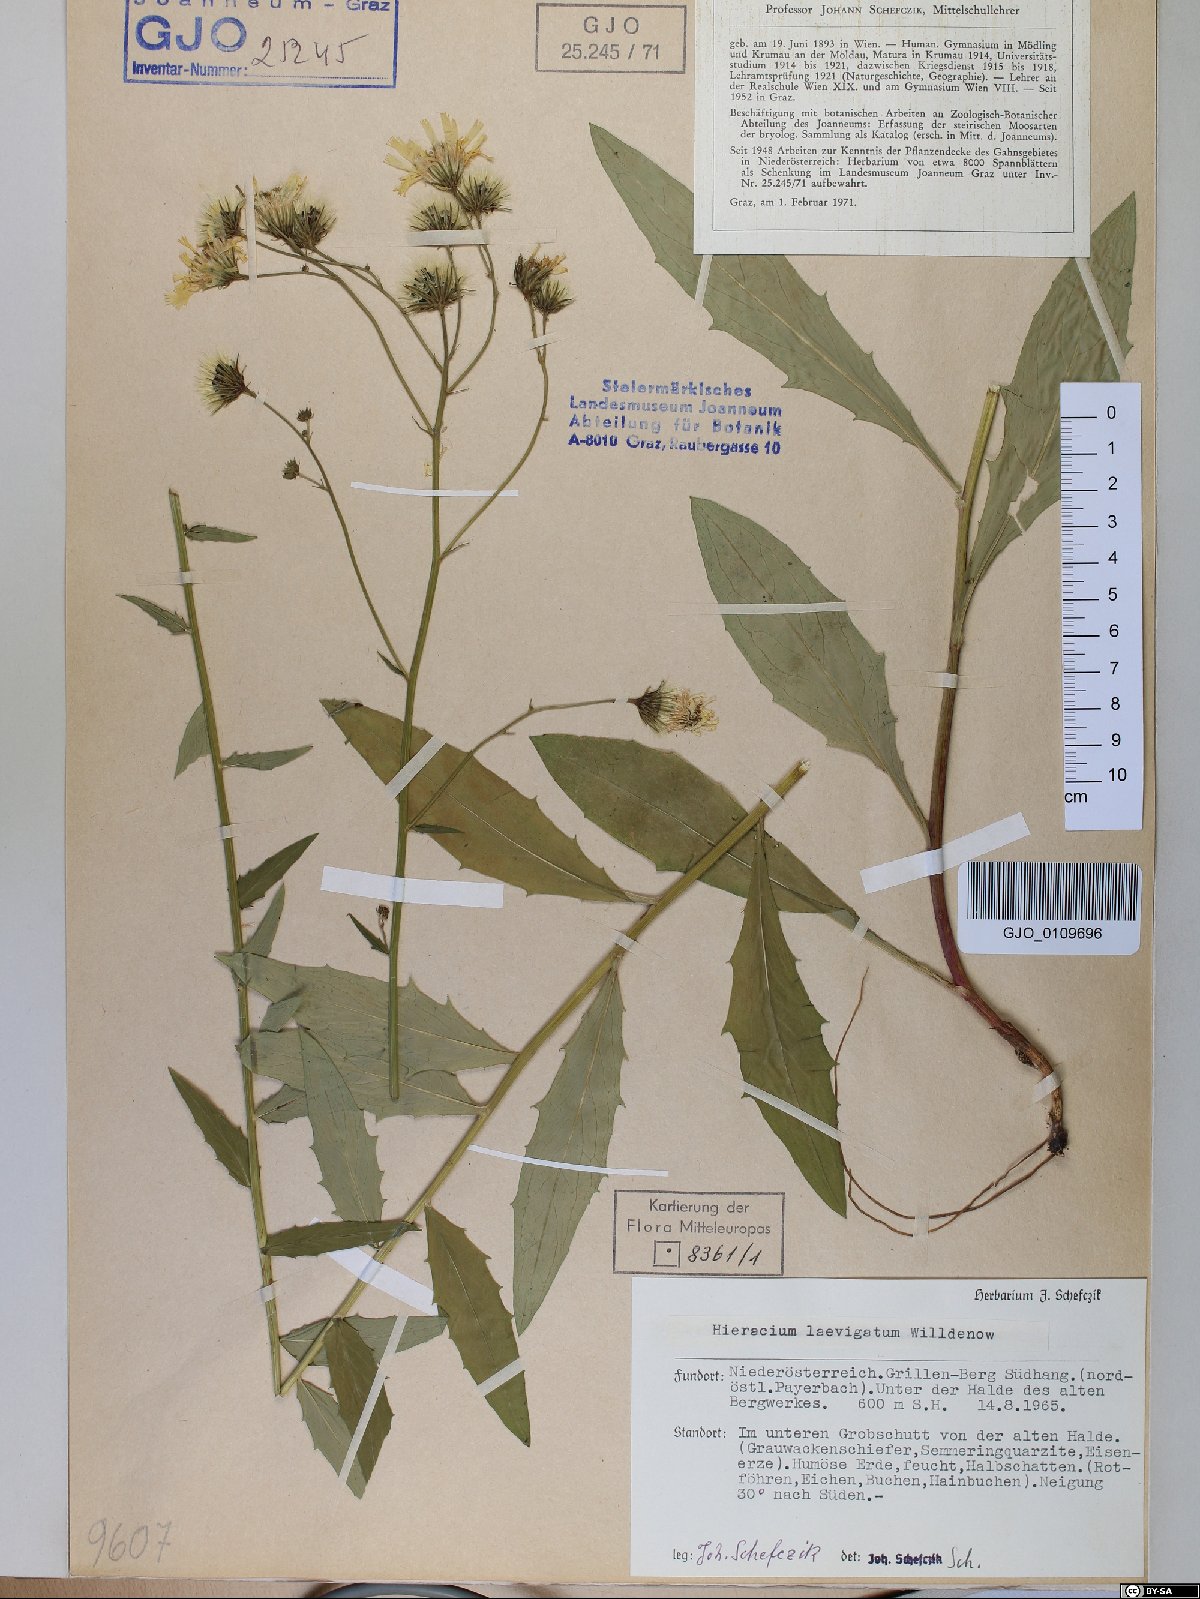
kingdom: Plantae
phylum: Tracheophyta
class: Magnoliopsida
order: Asterales
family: Asteraceae
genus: Hieracium
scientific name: Hieracium laevigatum
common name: Smooth hawkweed
